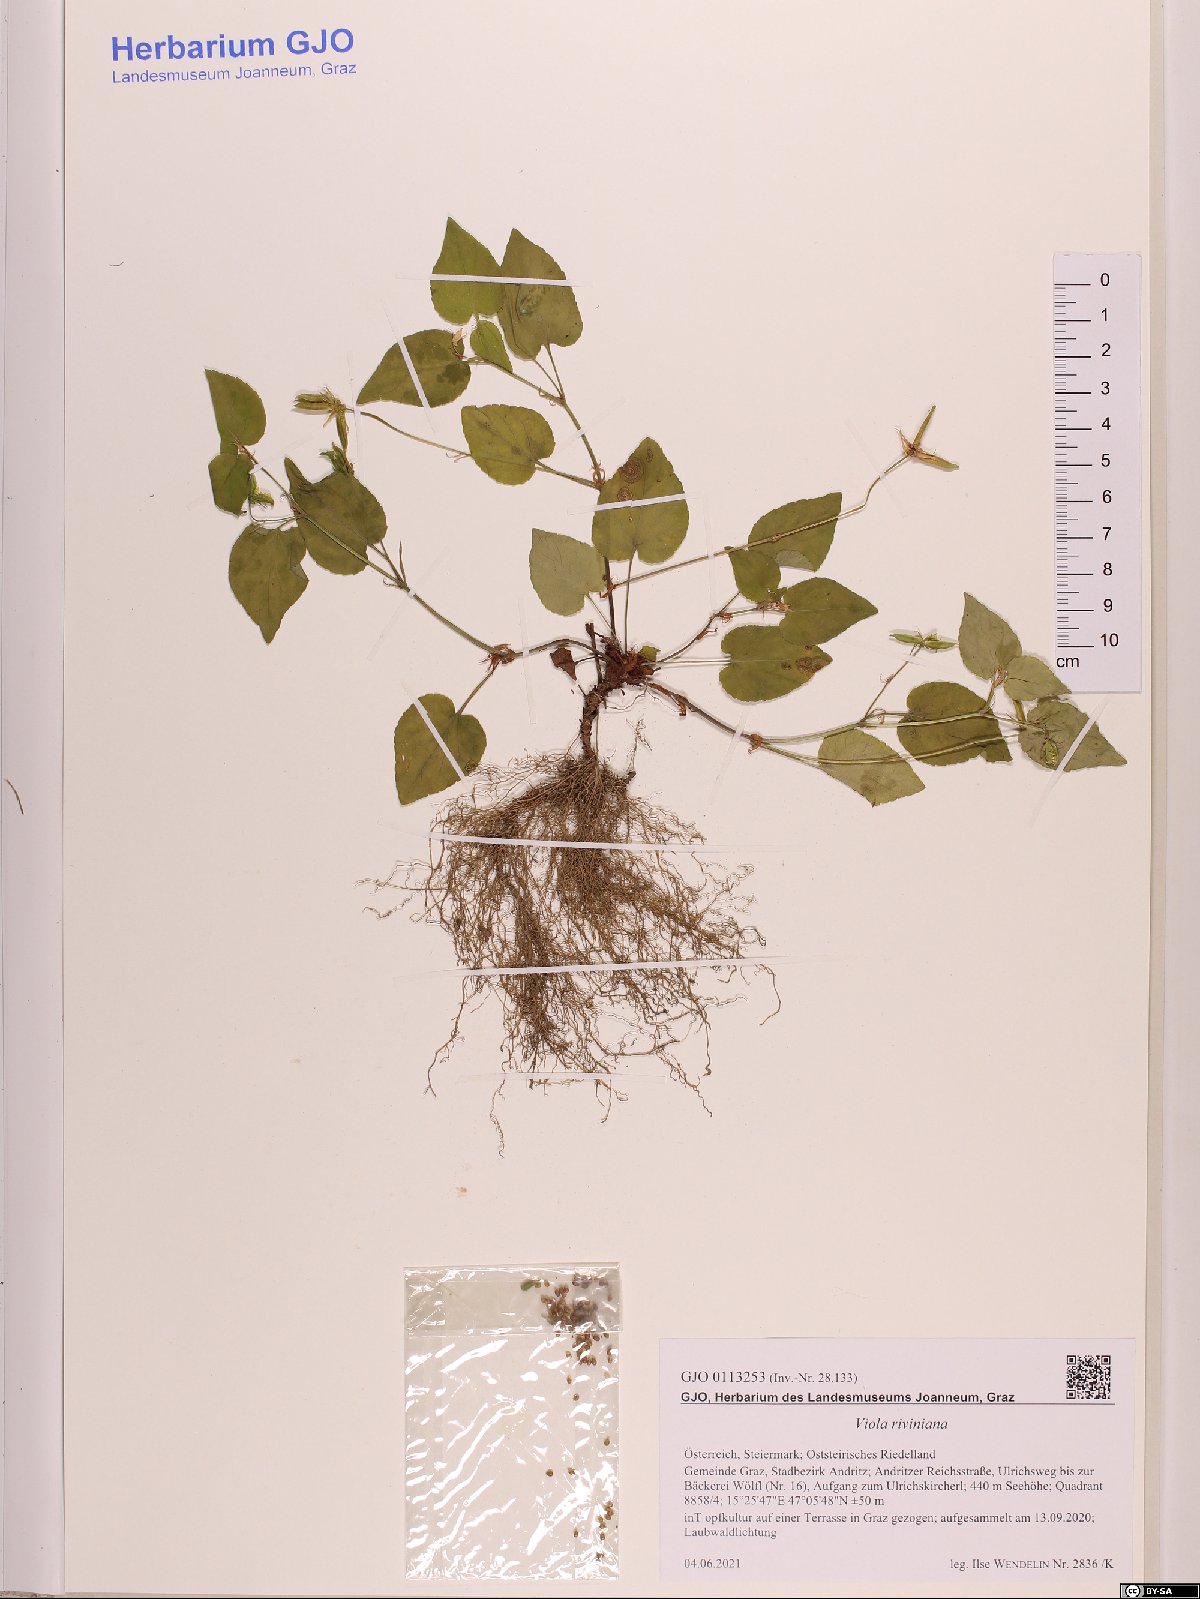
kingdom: Plantae
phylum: Tracheophyta
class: Magnoliopsida
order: Malpighiales
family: Violaceae
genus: Viola
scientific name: Viola riviniana
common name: Common dog-violet
